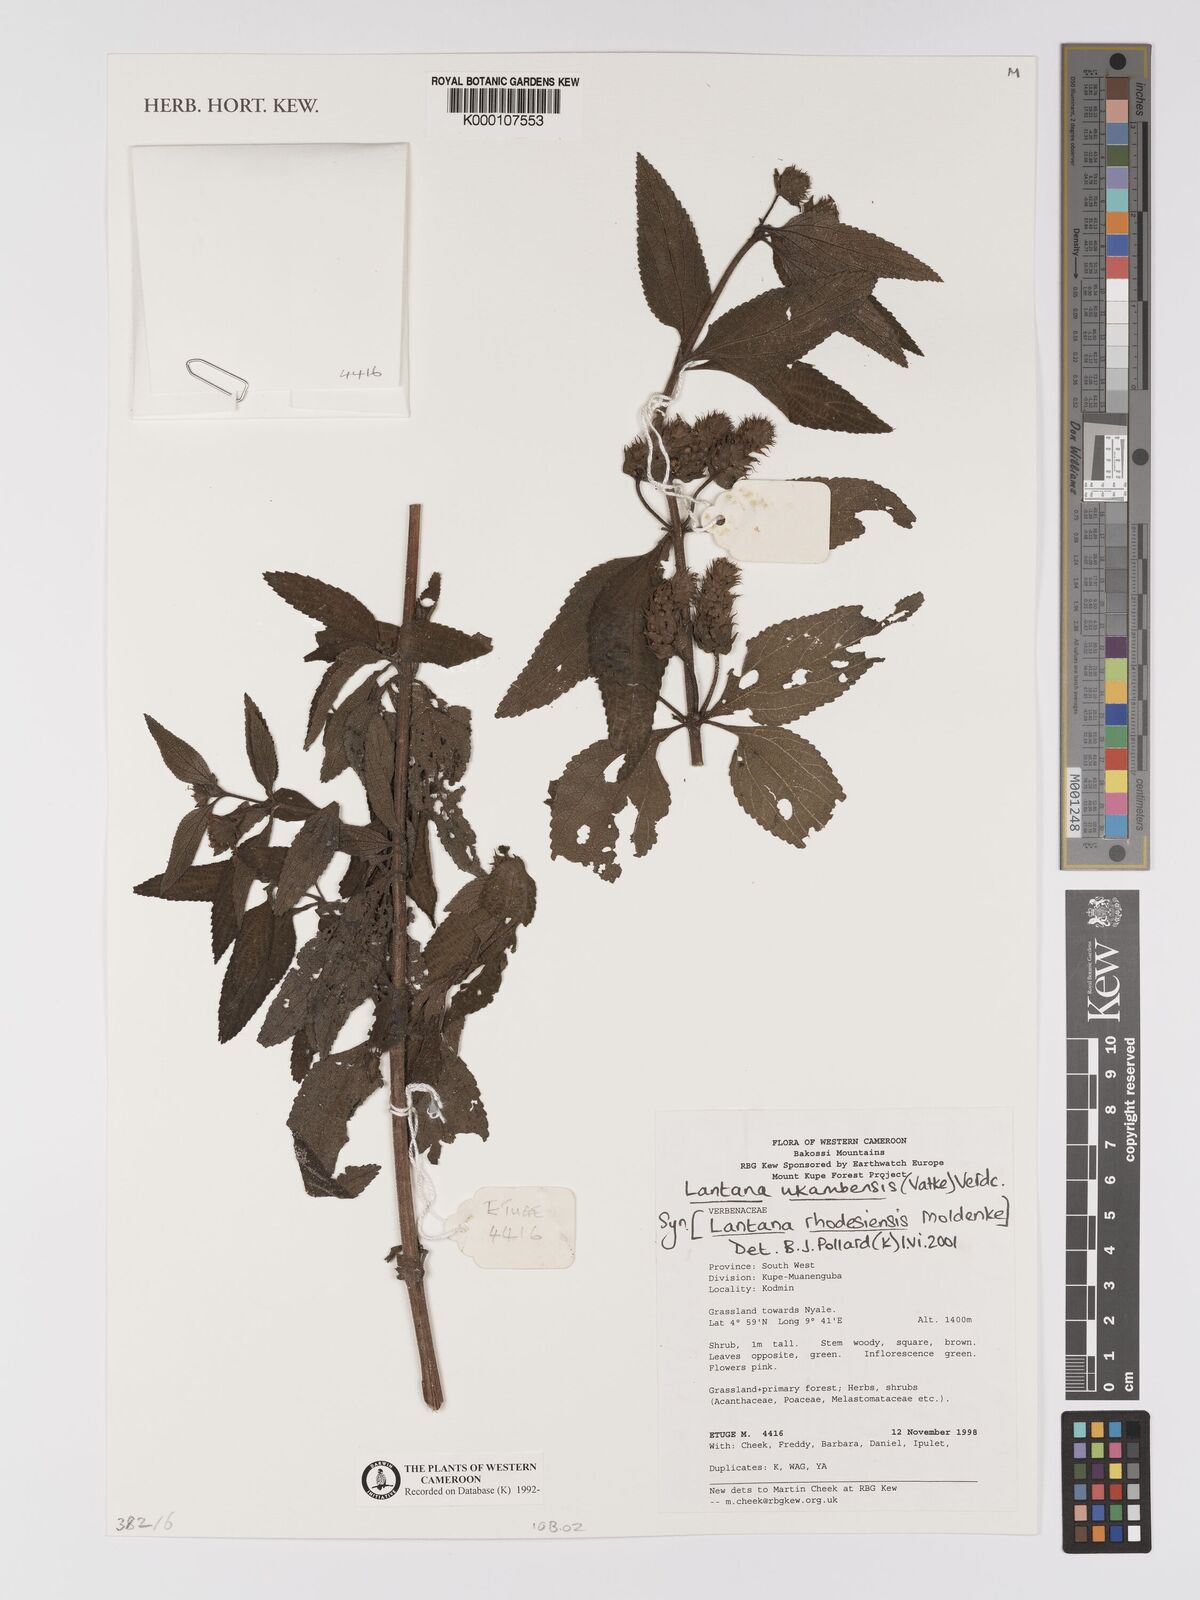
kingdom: Plantae
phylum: Tracheophyta
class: Magnoliopsida
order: Lamiales
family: Verbenaceae
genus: Lantana
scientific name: Lantana ukambensis
